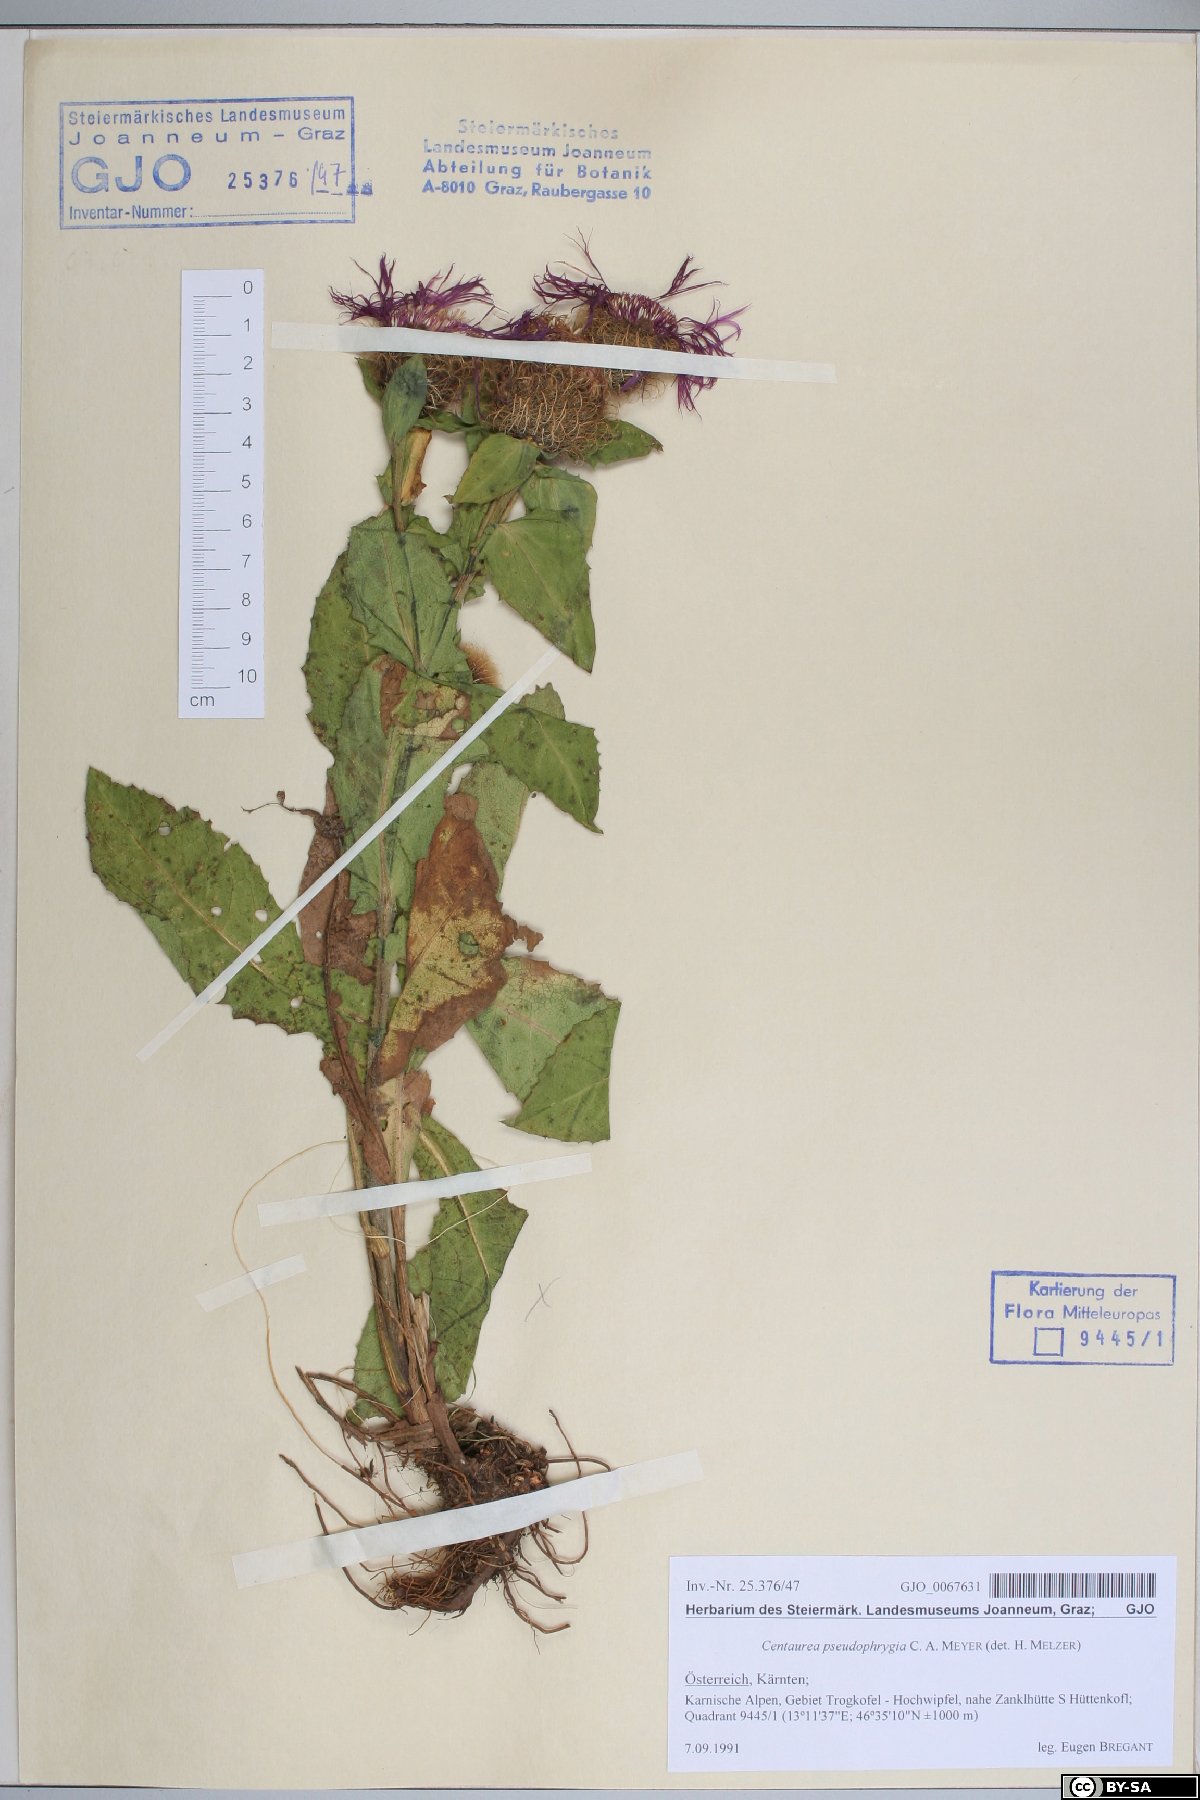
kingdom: Plantae
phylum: Tracheophyta
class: Magnoliopsida
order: Asterales
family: Asteraceae
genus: Centaurea
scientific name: Centaurea pseudophrygia
